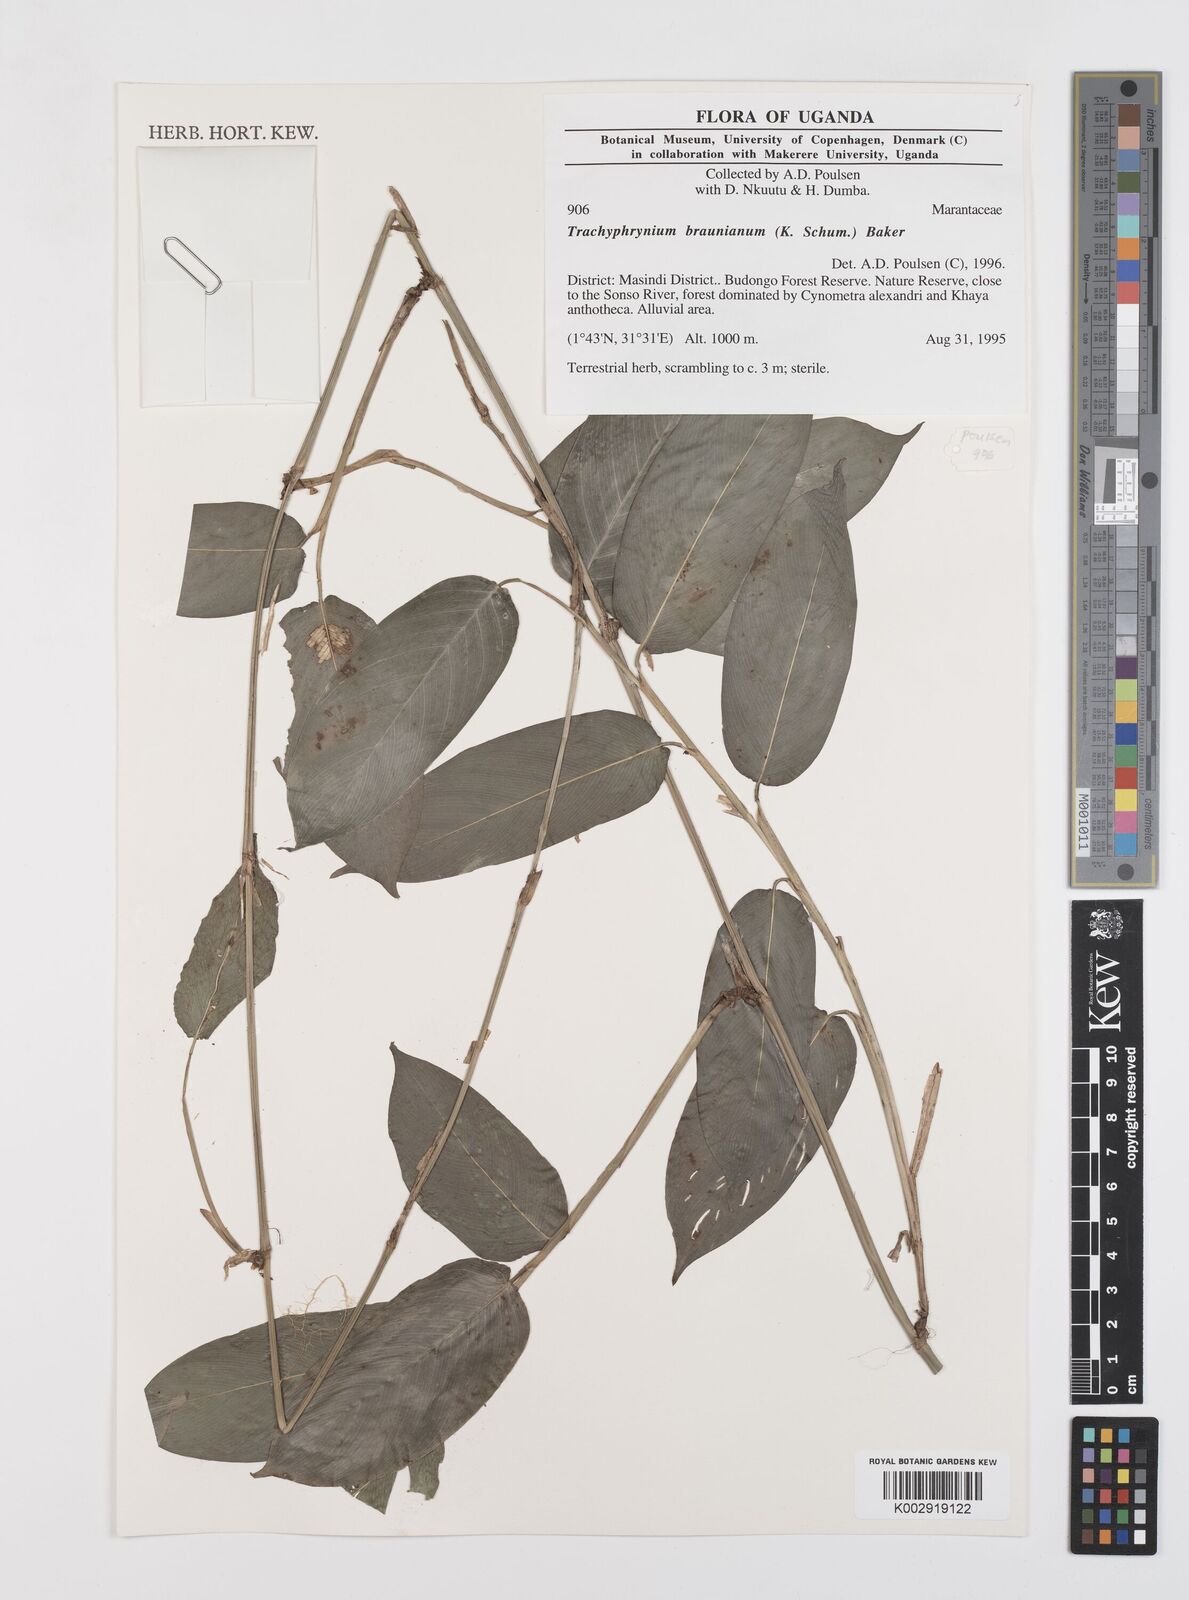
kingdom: Plantae
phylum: Tracheophyta
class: Liliopsida
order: Zingiberales
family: Marantaceae
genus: Trachyphrynium
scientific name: Trachyphrynium braunianum
